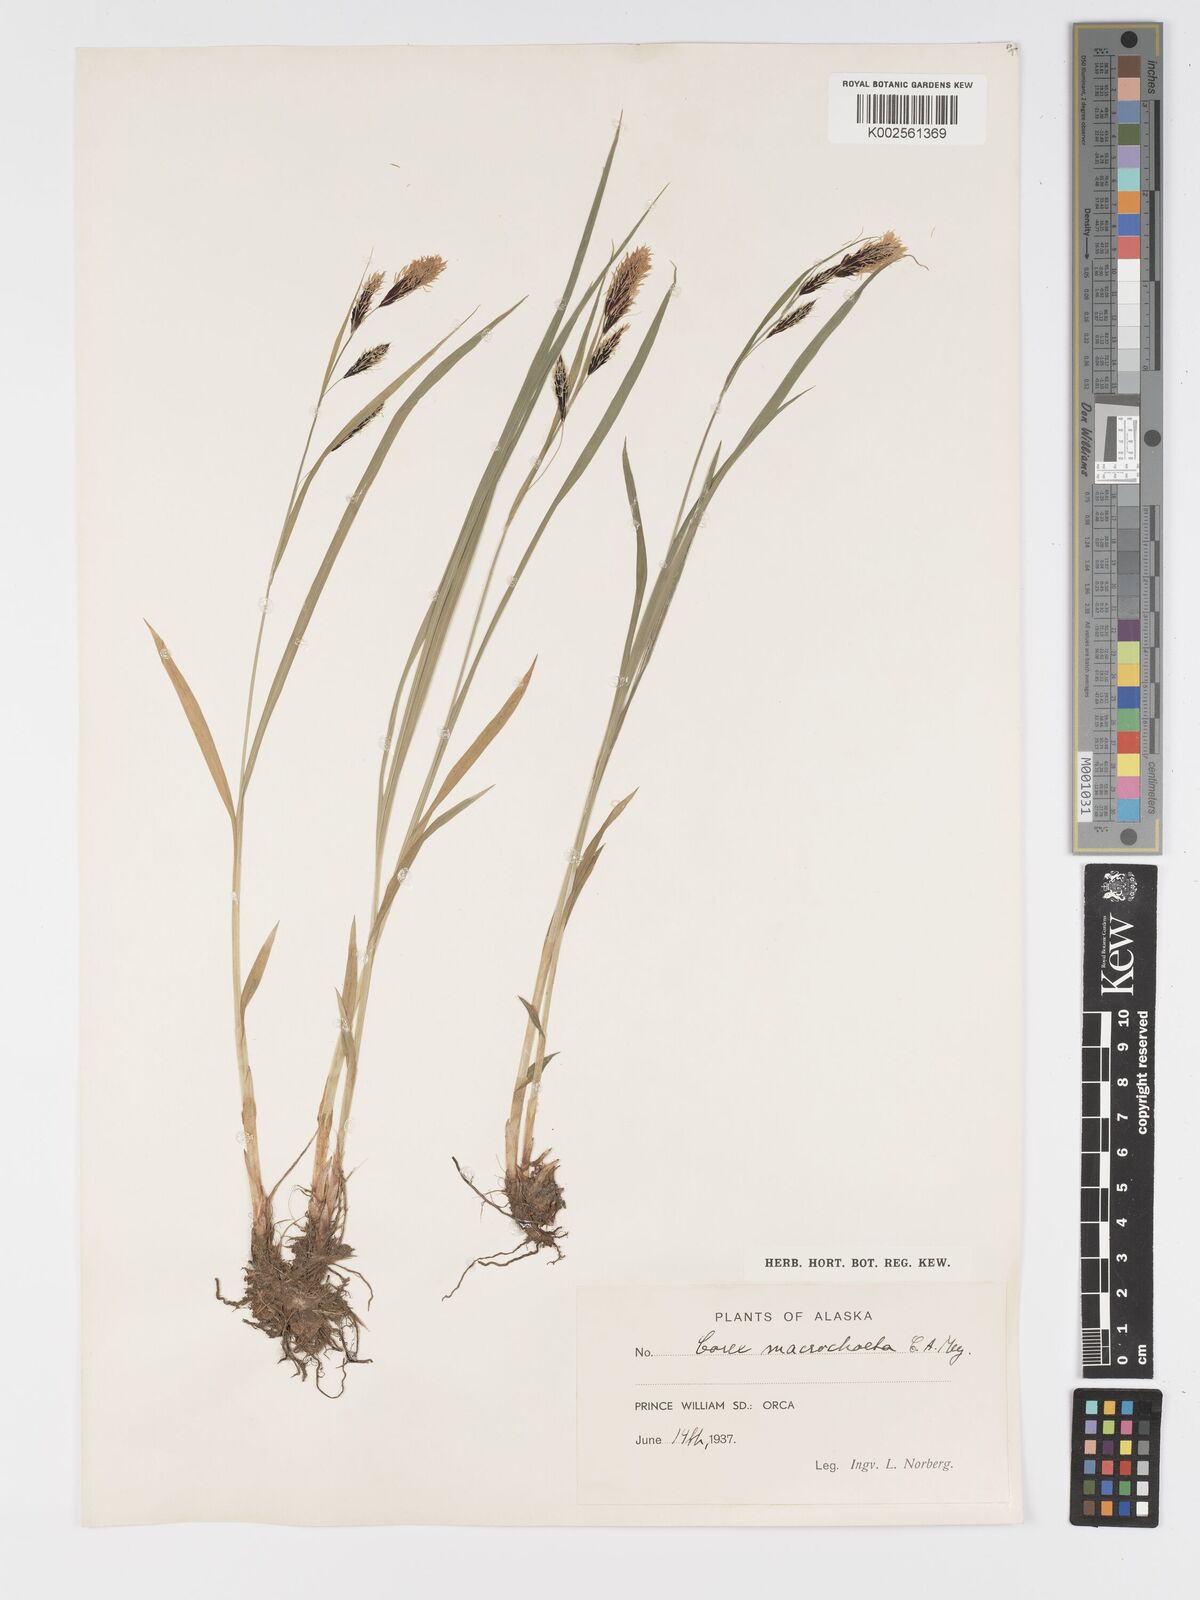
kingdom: Plantae
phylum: Tracheophyta
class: Liliopsida
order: Poales
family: Cyperaceae
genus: Carex
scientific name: Carex macrochaeta
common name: Alaska large awn sedge
